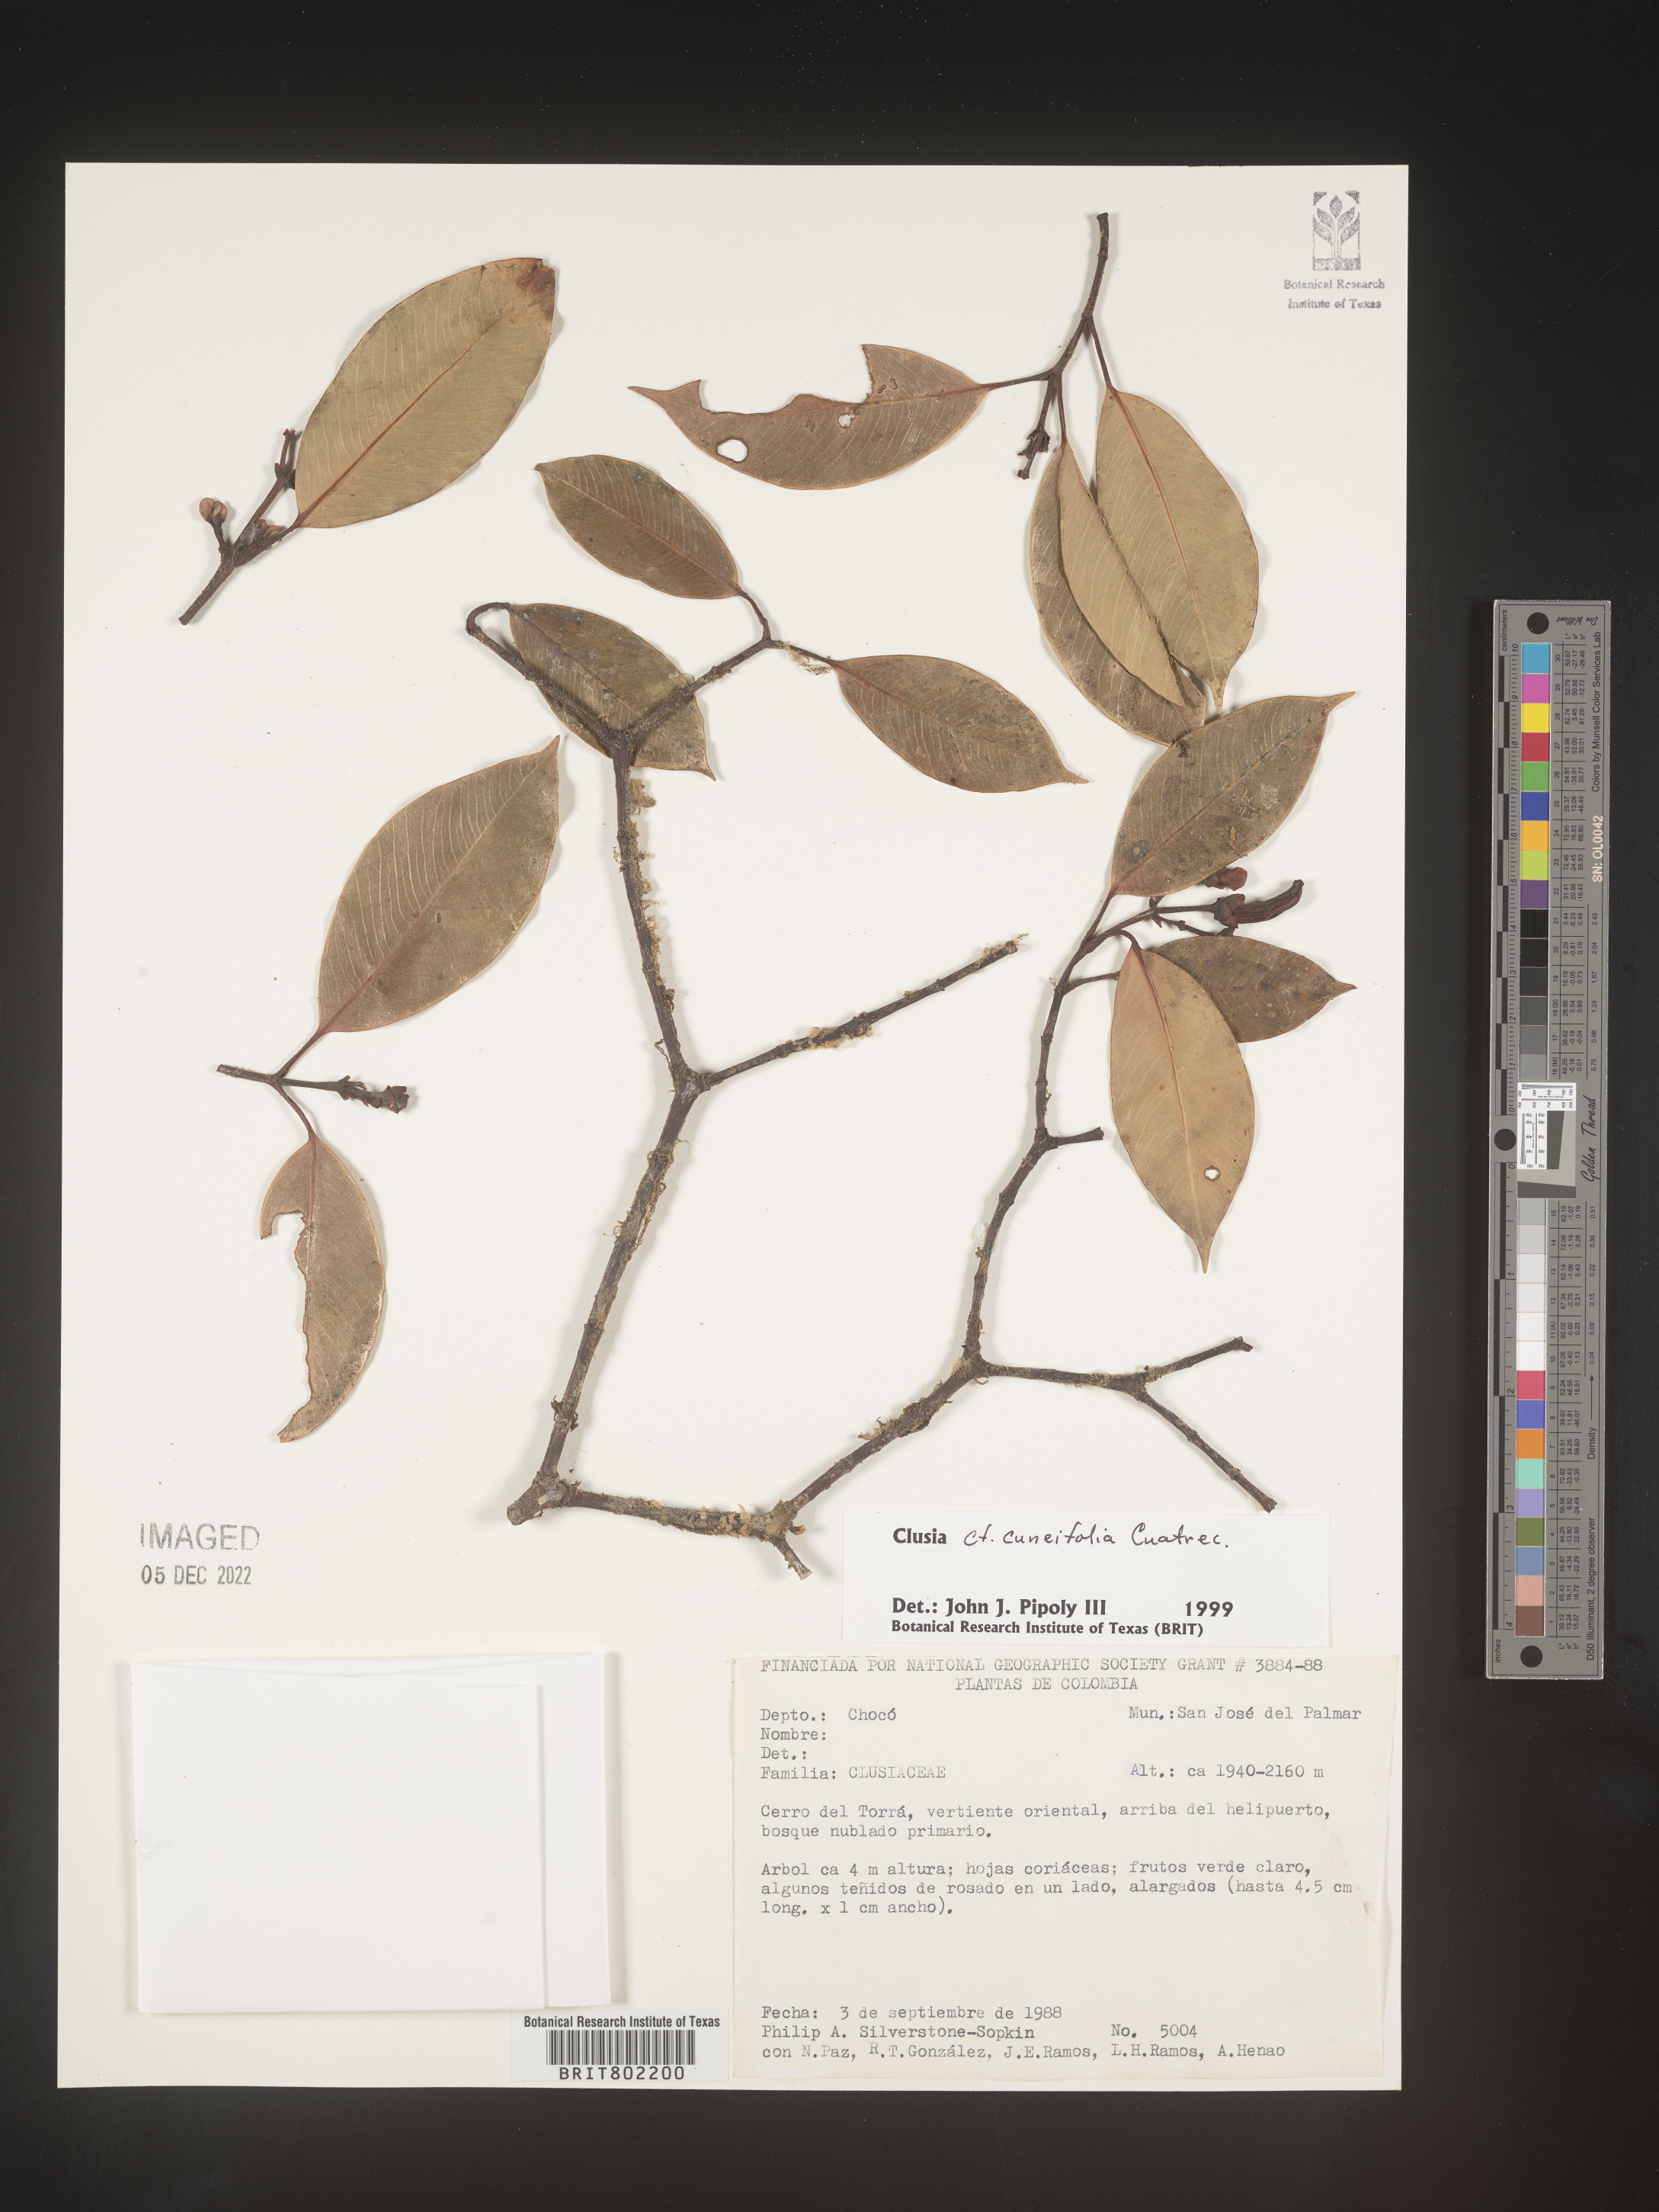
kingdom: Plantae
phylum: Tracheophyta
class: Magnoliopsida
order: Malpighiales
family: Clusiaceae
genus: Clusia
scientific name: Clusia
